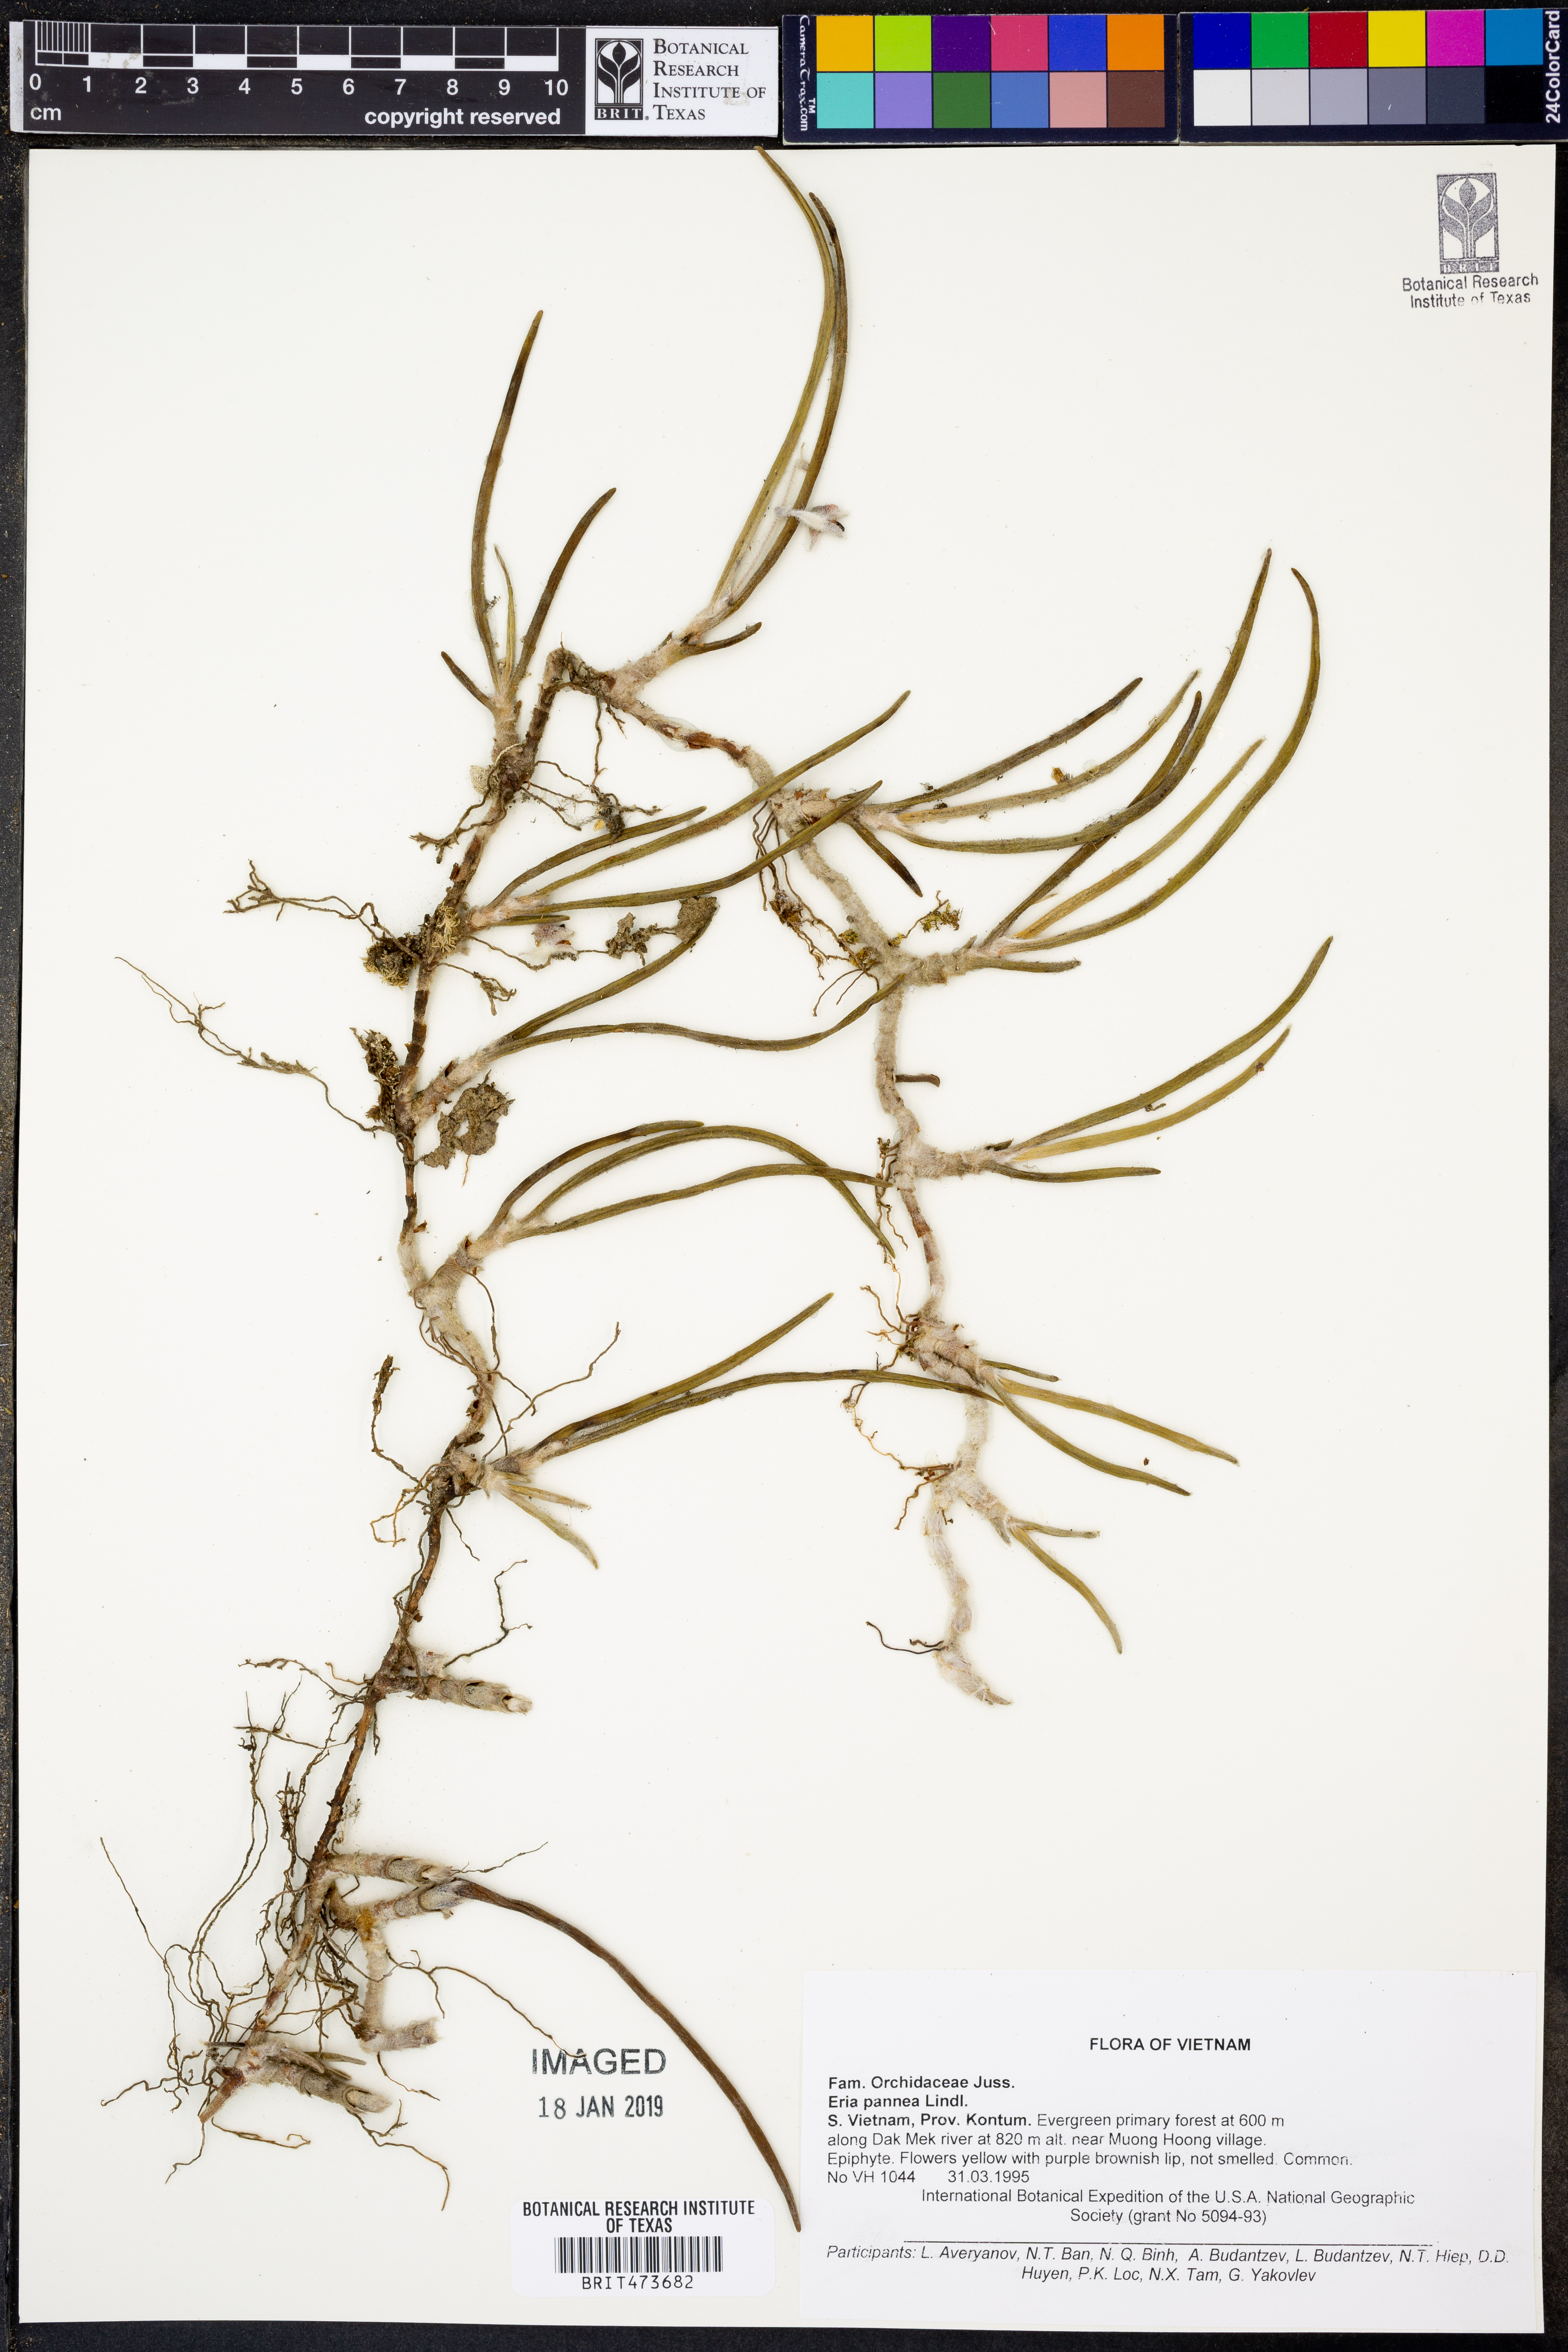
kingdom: Plantae
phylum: Tracheophyta
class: Liliopsida
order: Asparagales
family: Orchidaceae
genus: Strongyleria
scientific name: Strongyleria pannea
